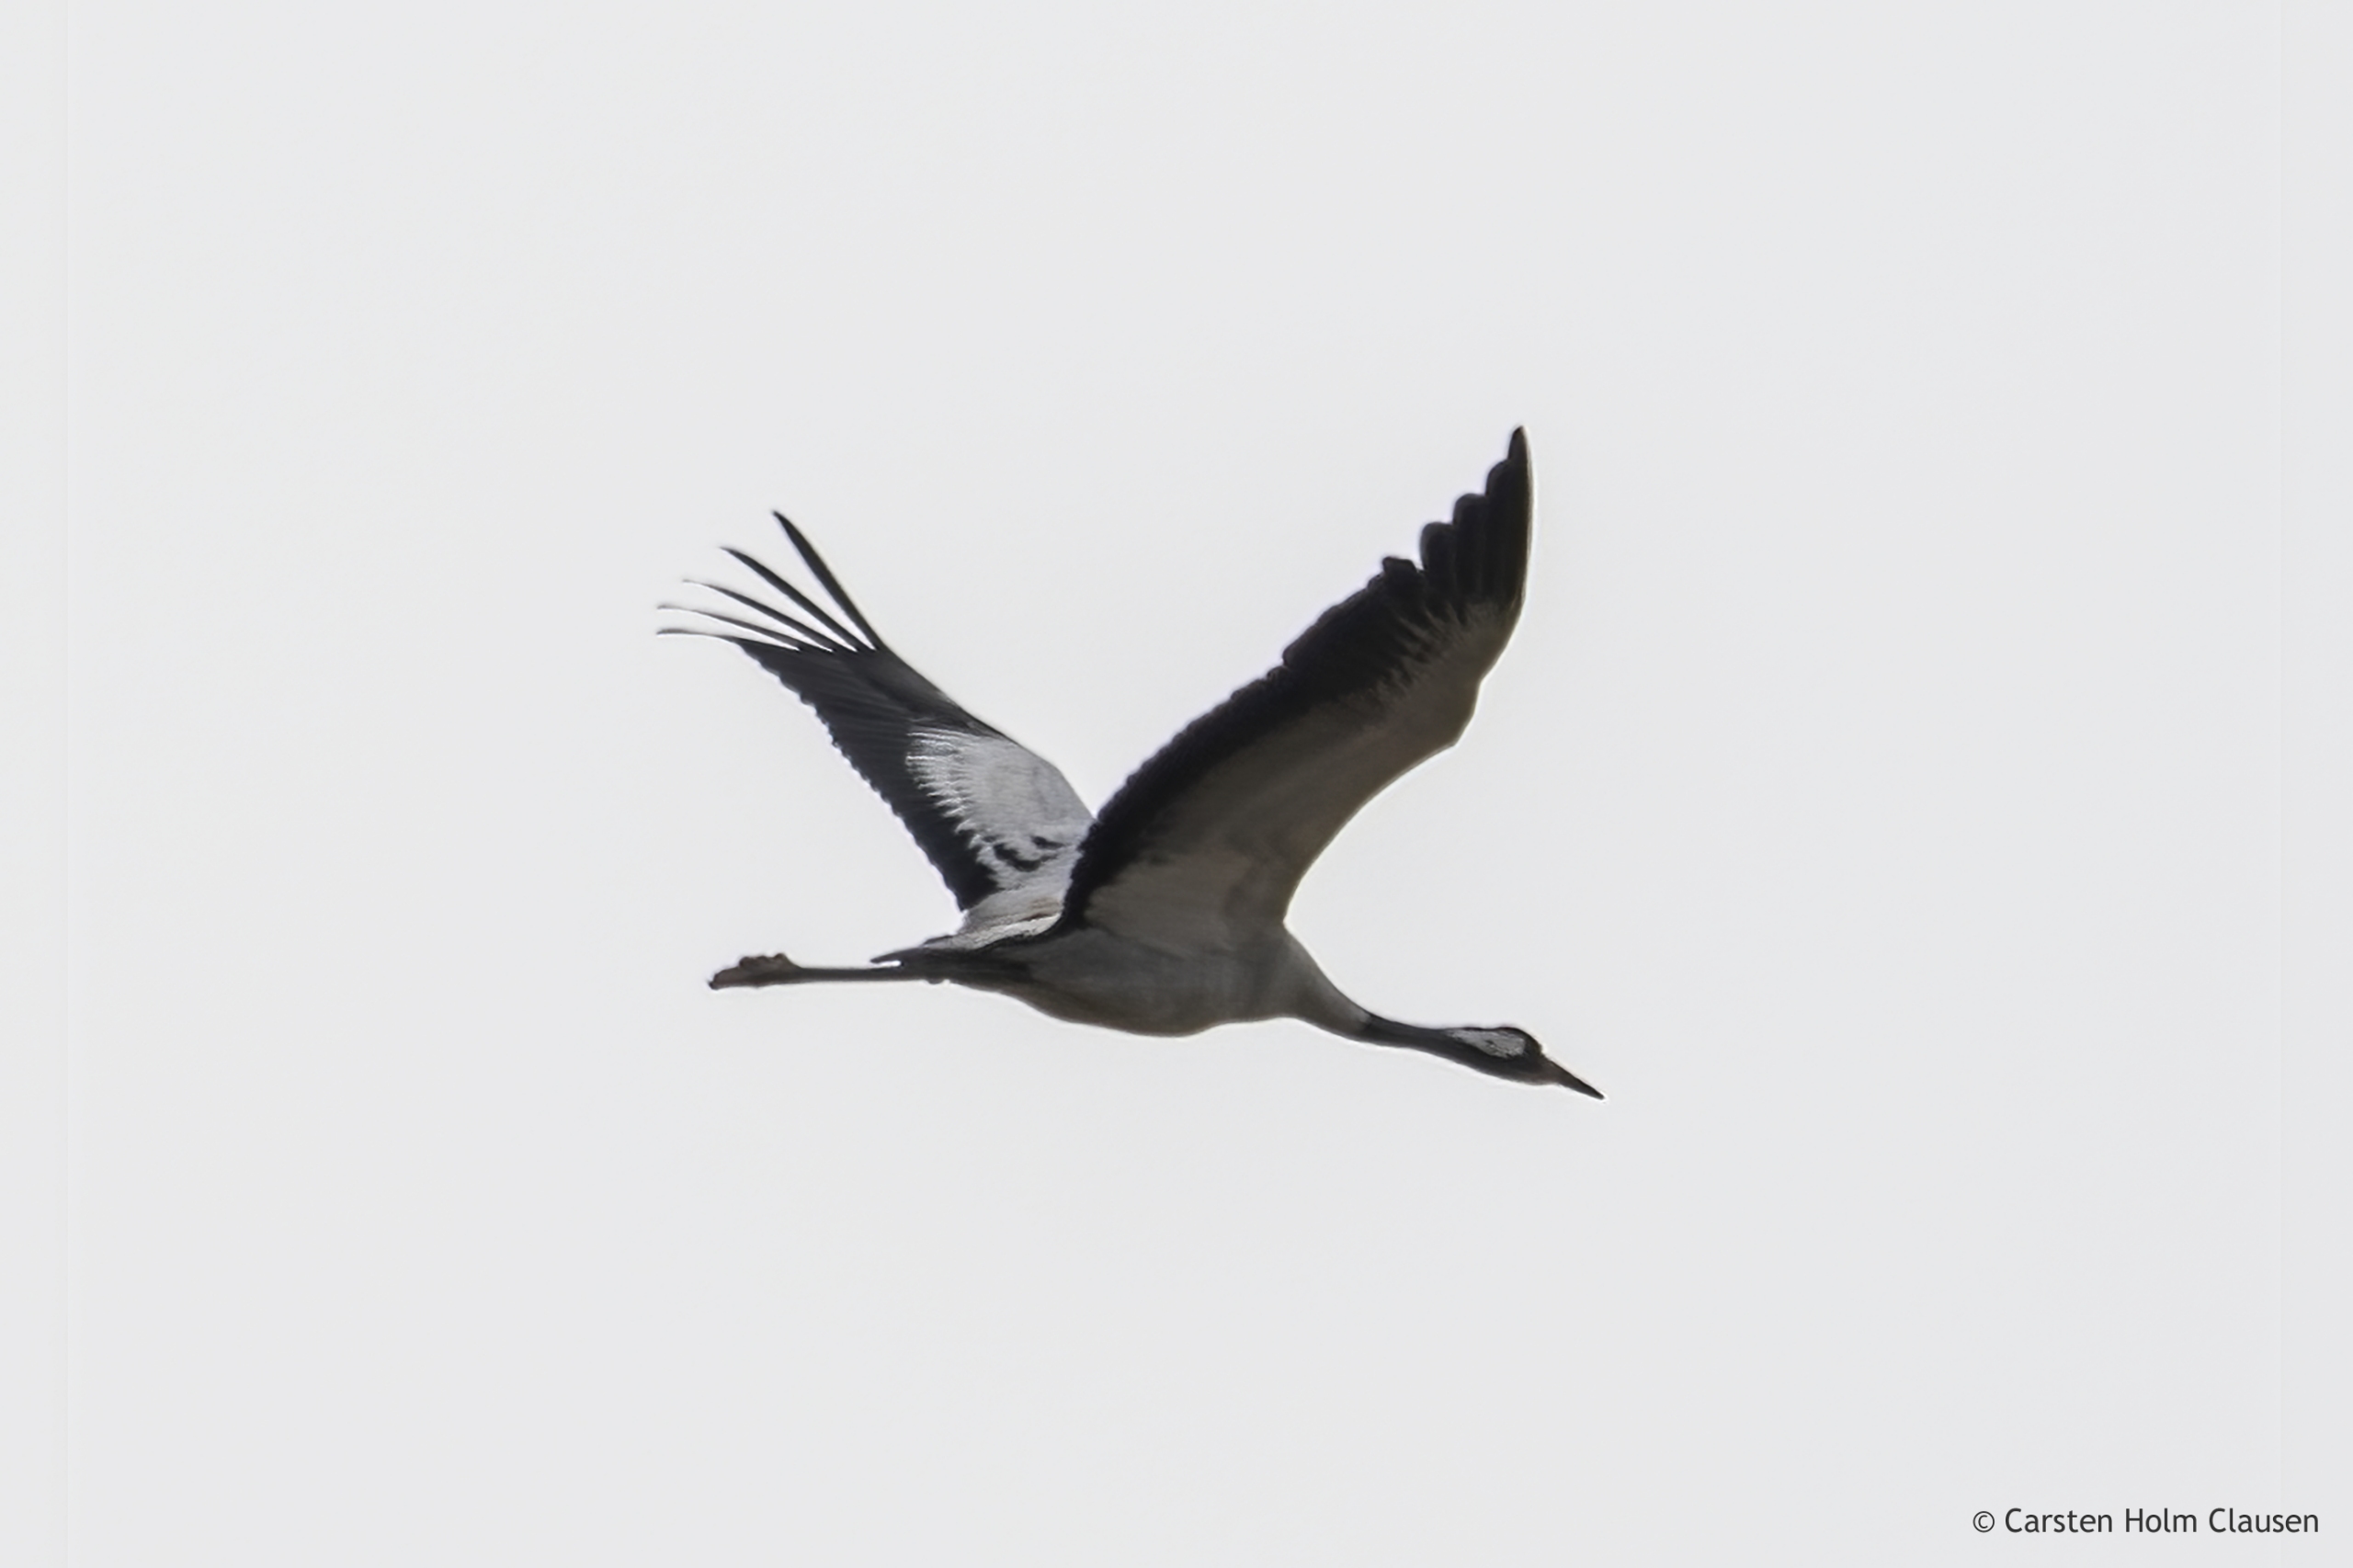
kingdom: Animalia
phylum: Chordata
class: Aves
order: Gruiformes
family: Gruidae
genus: Grus
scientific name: Grus grus
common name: Trane
